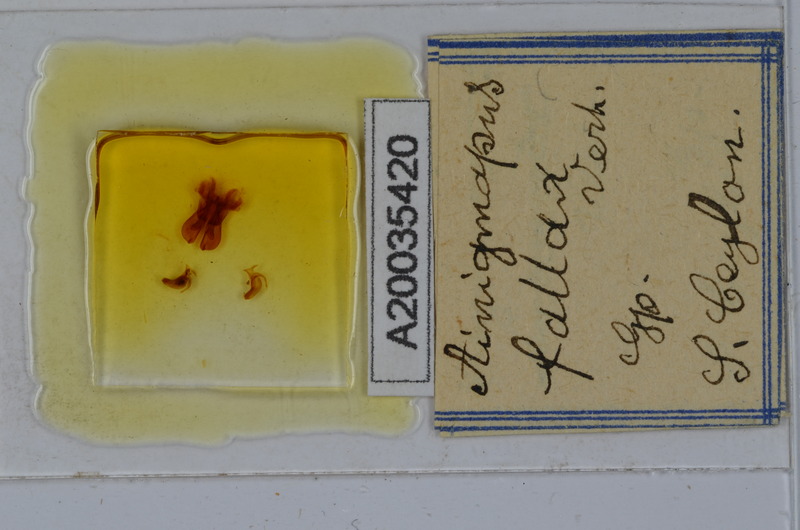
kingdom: Animalia
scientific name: Animalia
